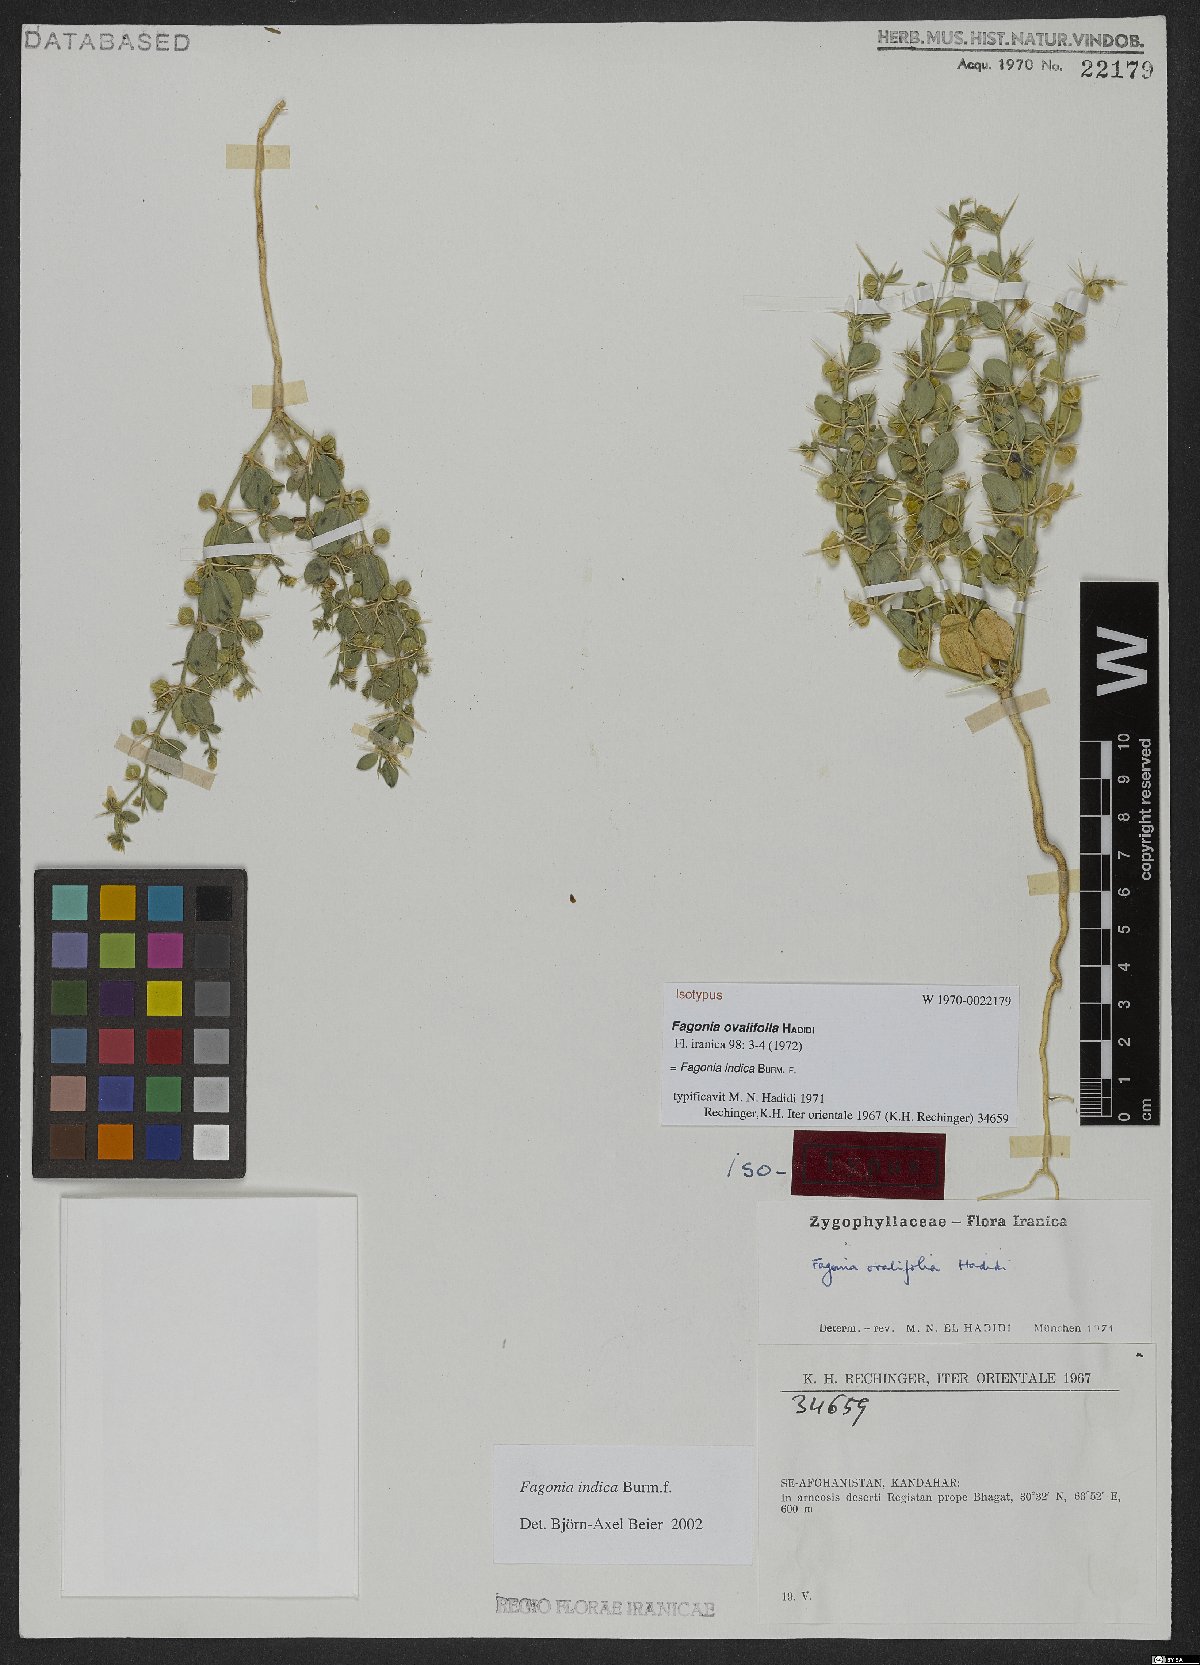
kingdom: Plantae
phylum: Tracheophyta
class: Magnoliopsida
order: Zygophyllales
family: Zygophyllaceae
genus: Fagonia
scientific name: Fagonia indica
